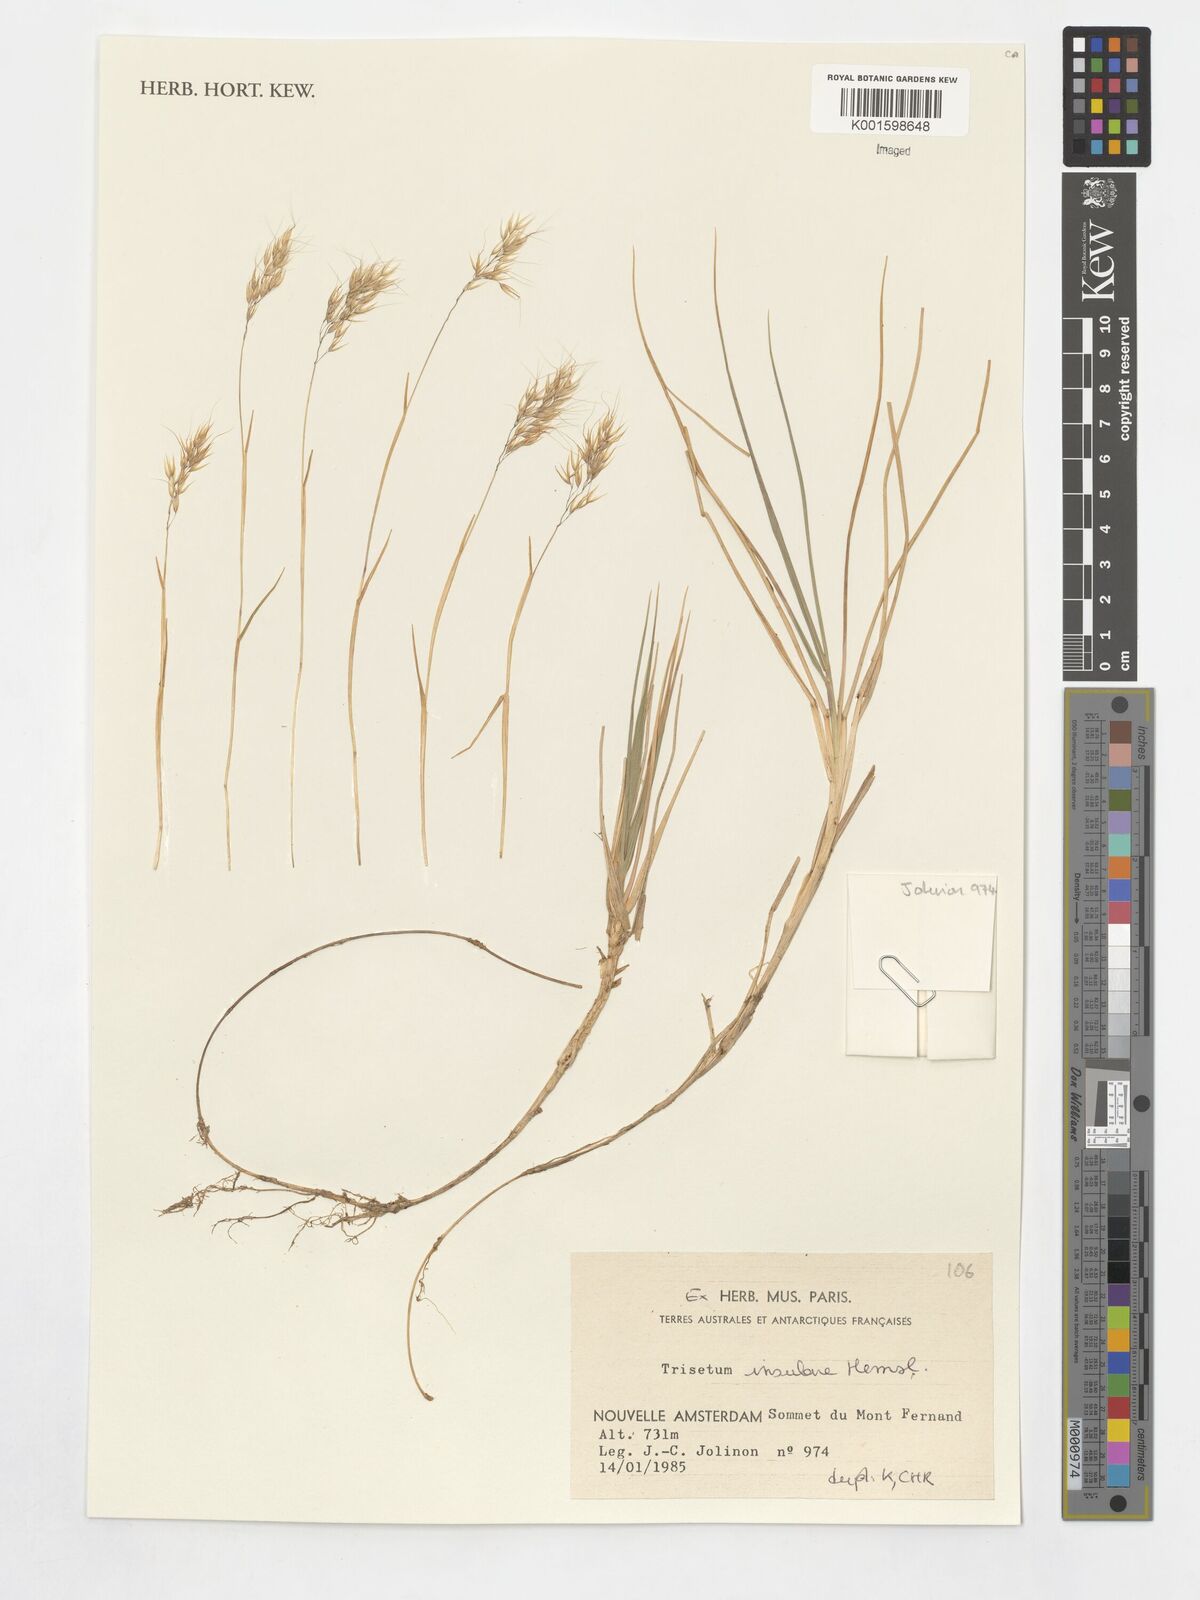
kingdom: Plantae
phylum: Tracheophyta
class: Liliopsida
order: Poales
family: Poaceae
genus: Pentameris
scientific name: Pentameris insularis
